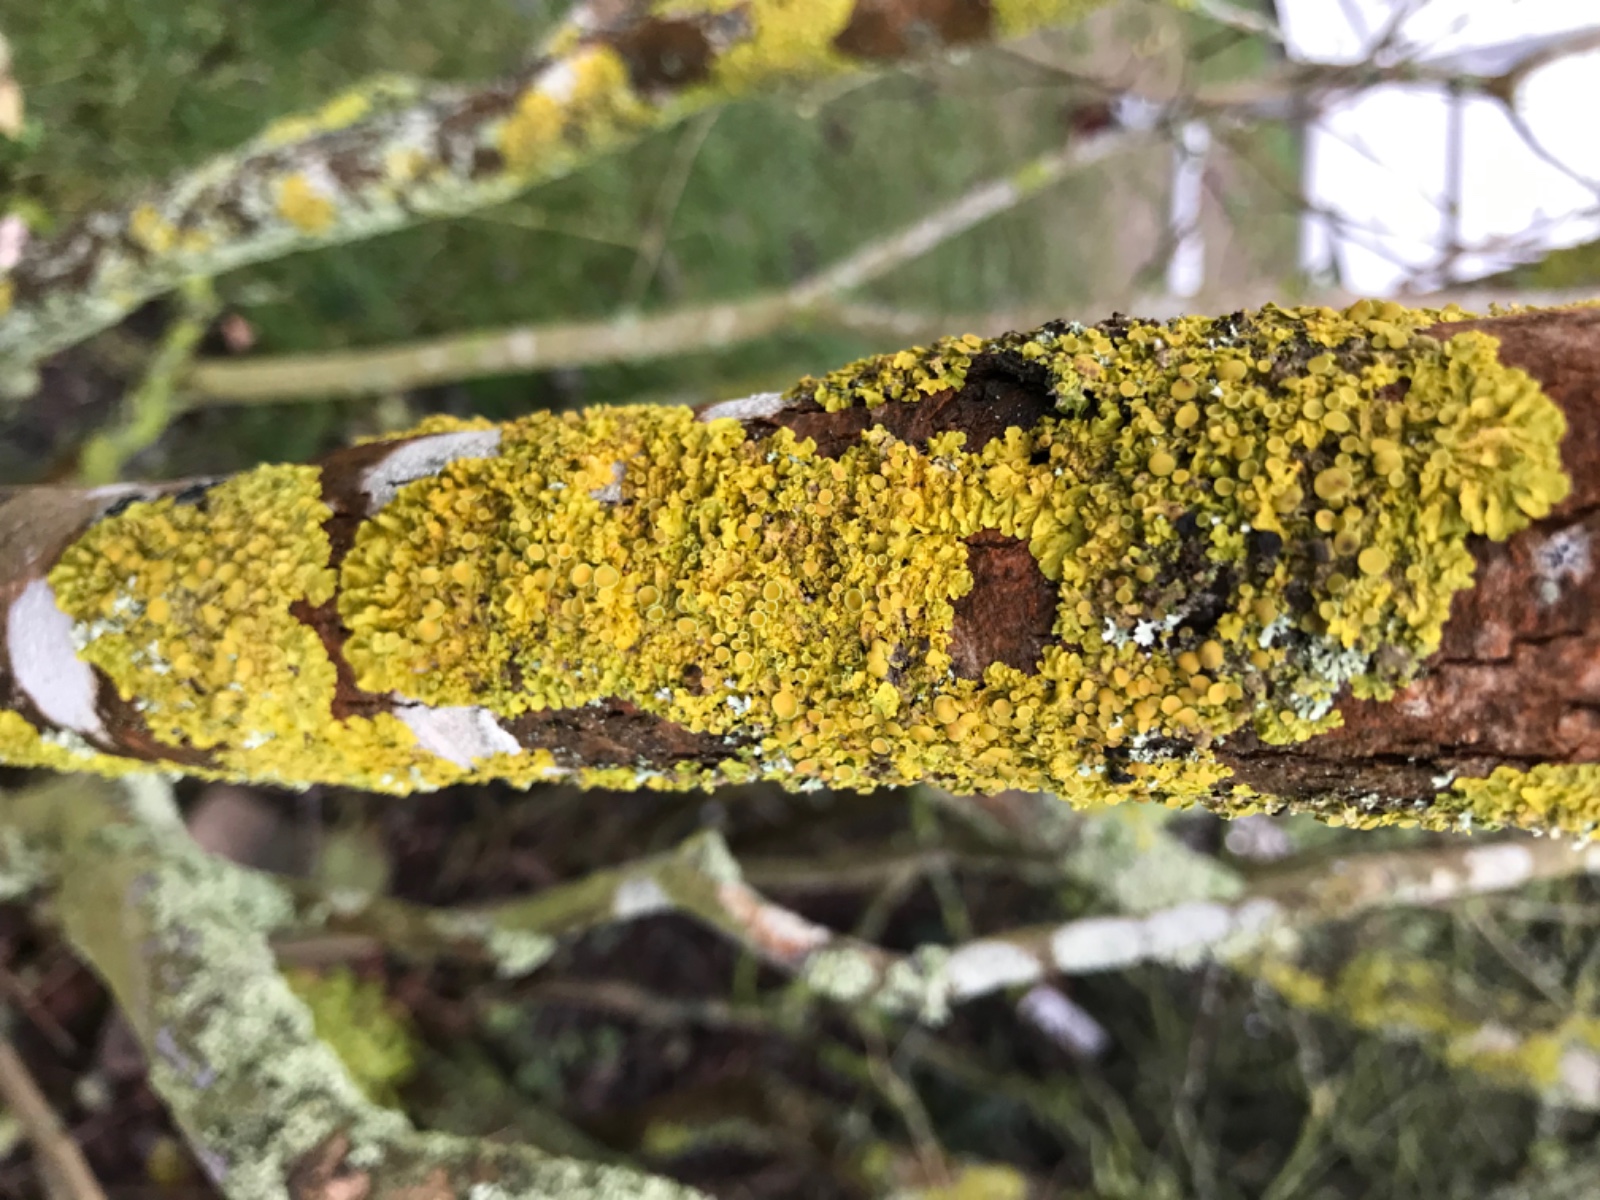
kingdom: Fungi
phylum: Ascomycota
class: Lecanoromycetes
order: Teloschistales
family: Teloschistaceae
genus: Xanthoria
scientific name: Xanthoria parietina
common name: almindelig væggelav
